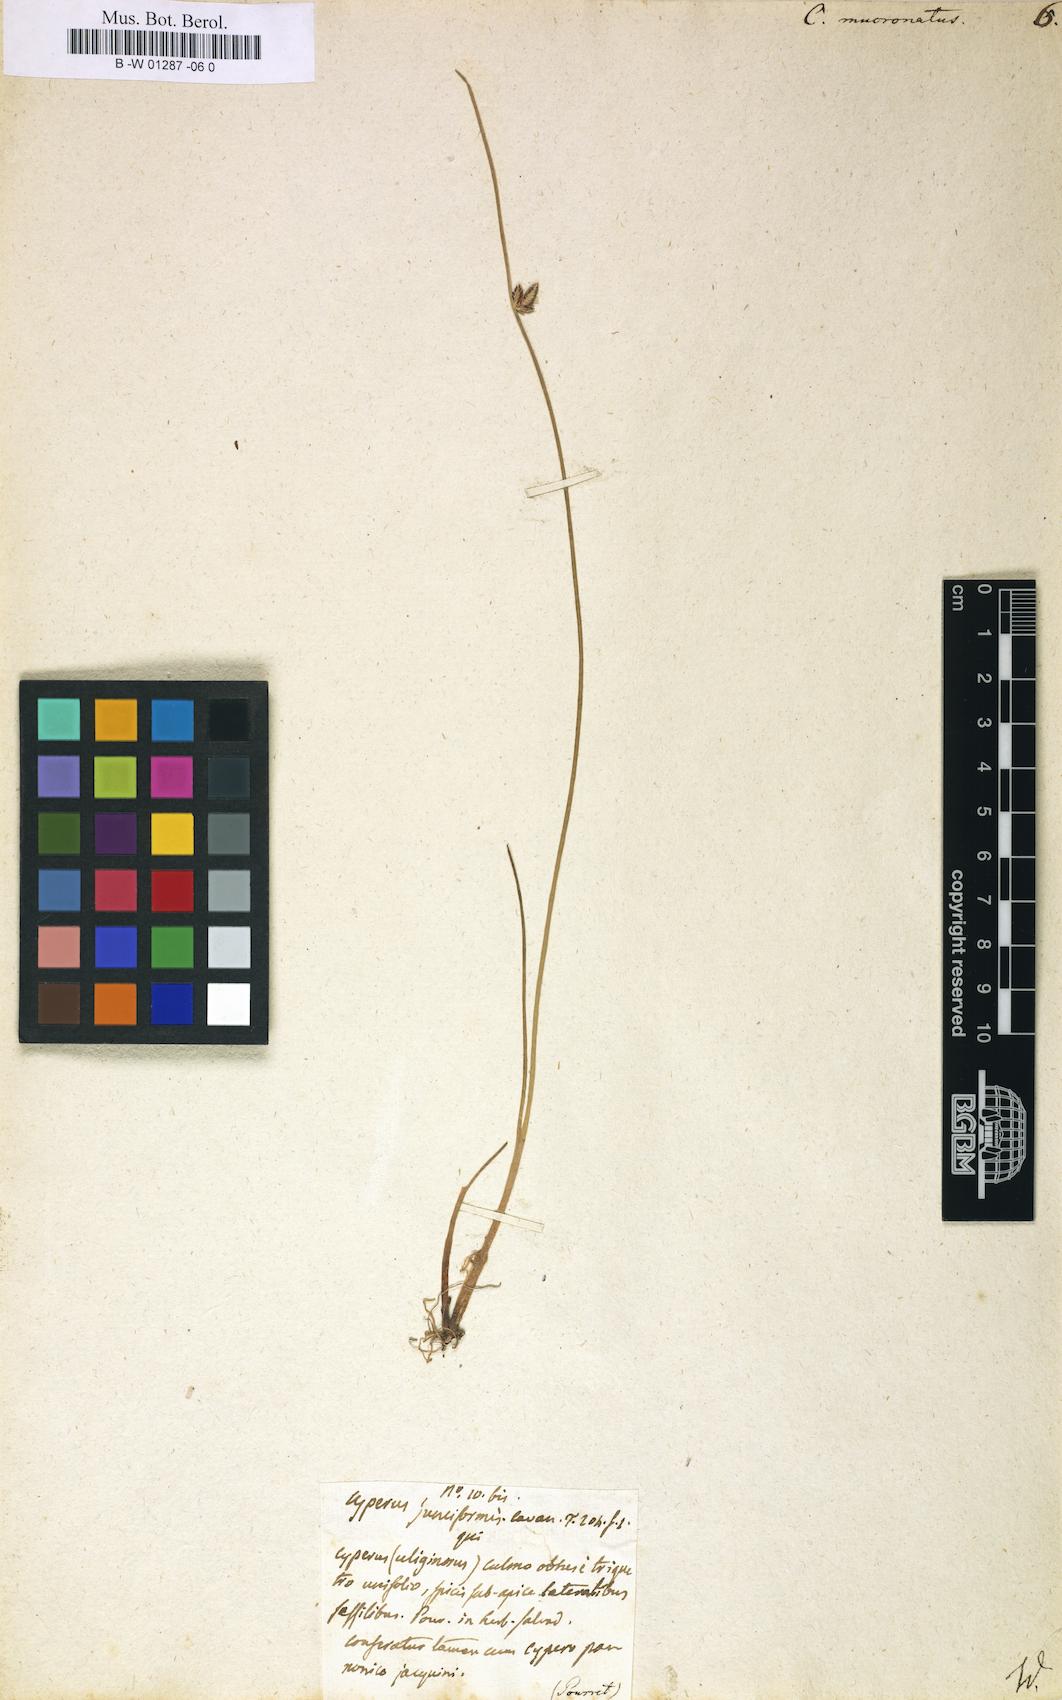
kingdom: Plantae
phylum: Tracheophyta
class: Liliopsida
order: Poales
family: Cyperaceae
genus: Cyperus
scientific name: Cyperus laevigatus
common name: Smooth flat sedge
